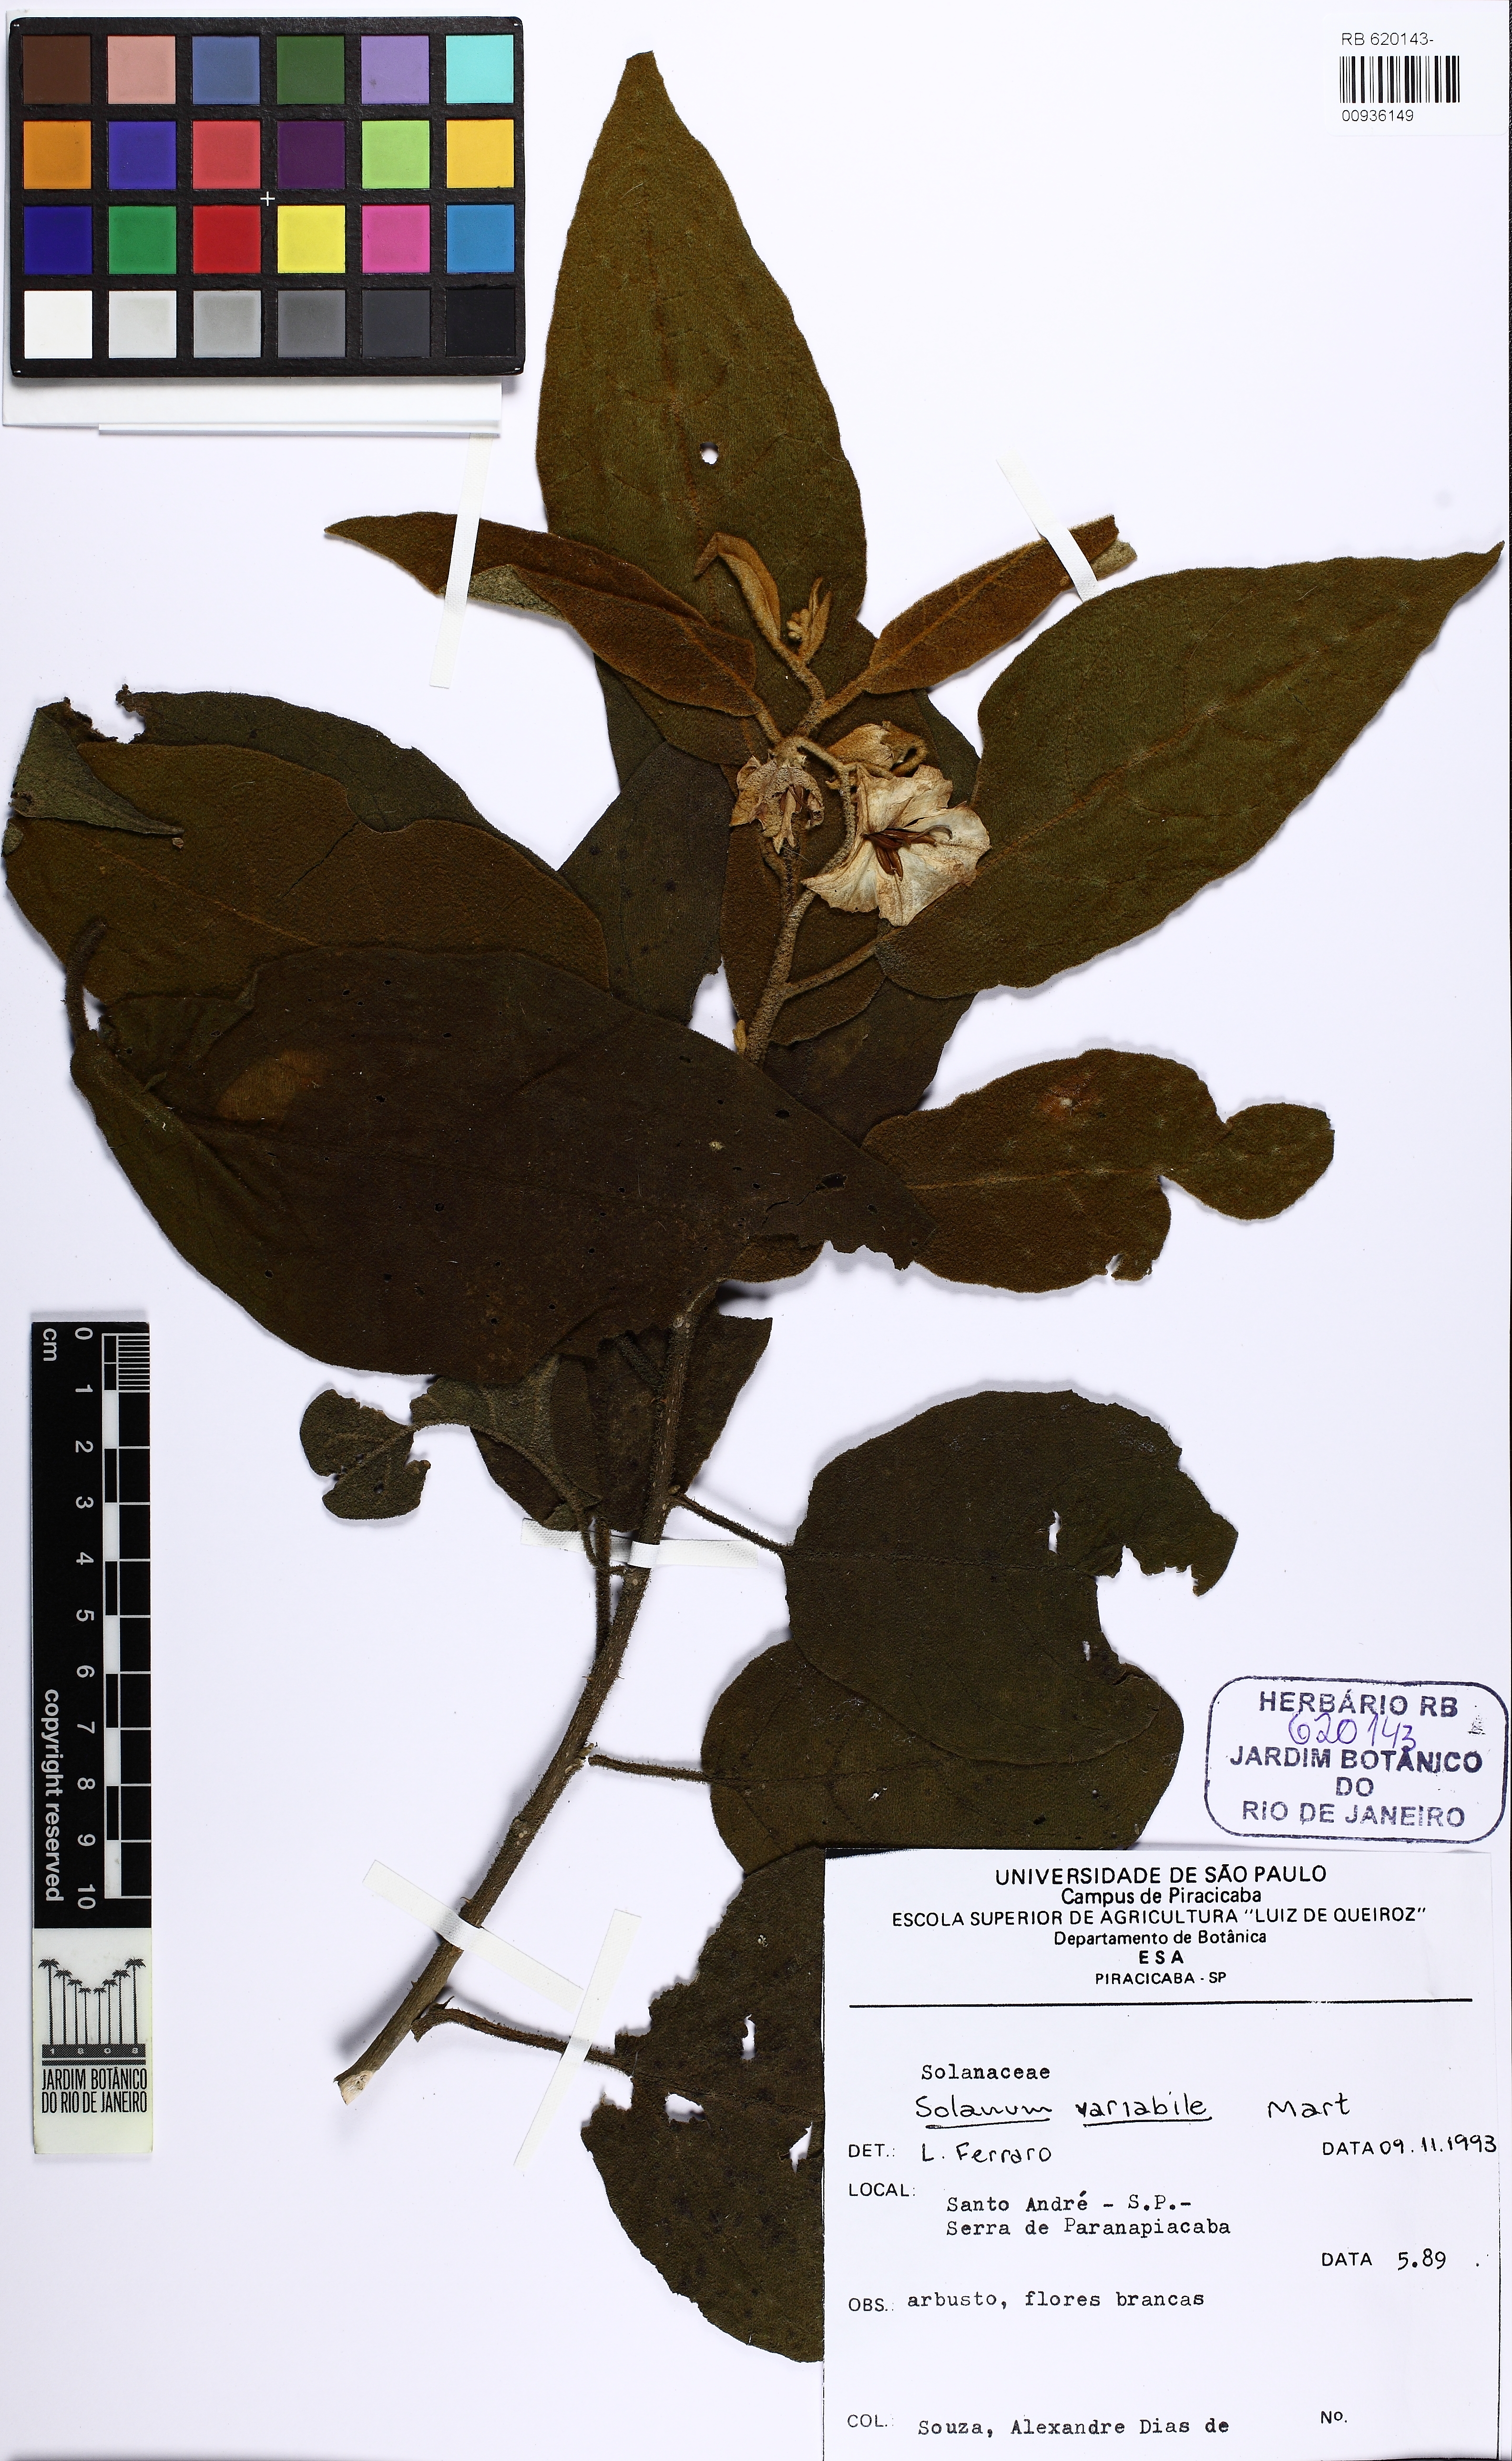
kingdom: Plantae
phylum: Tracheophyta
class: Magnoliopsida
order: Solanales
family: Solanaceae
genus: Solanum
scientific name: Solanum variabile
